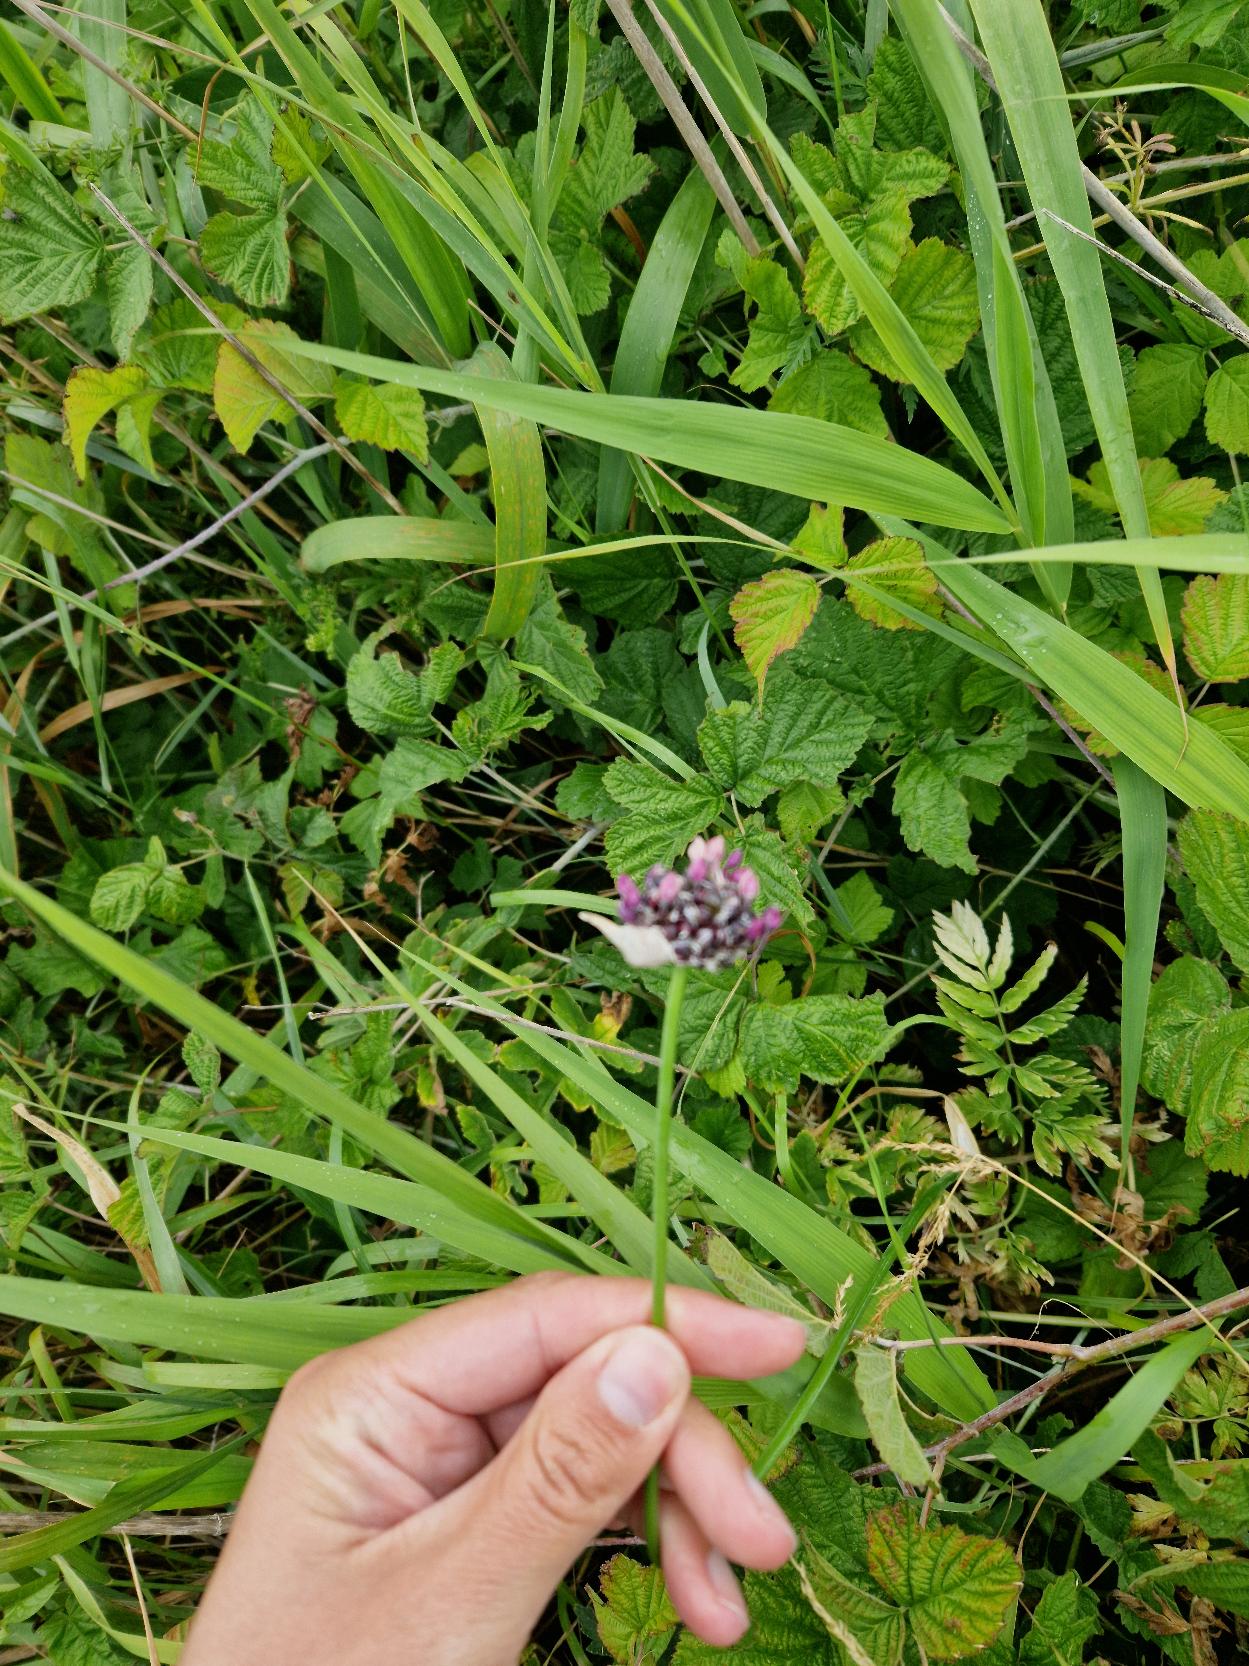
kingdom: Plantae
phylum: Tracheophyta
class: Liliopsida
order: Asparagales
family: Amaryllidaceae
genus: Allium
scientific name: Allium scorodoprasum
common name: Skov-løg
